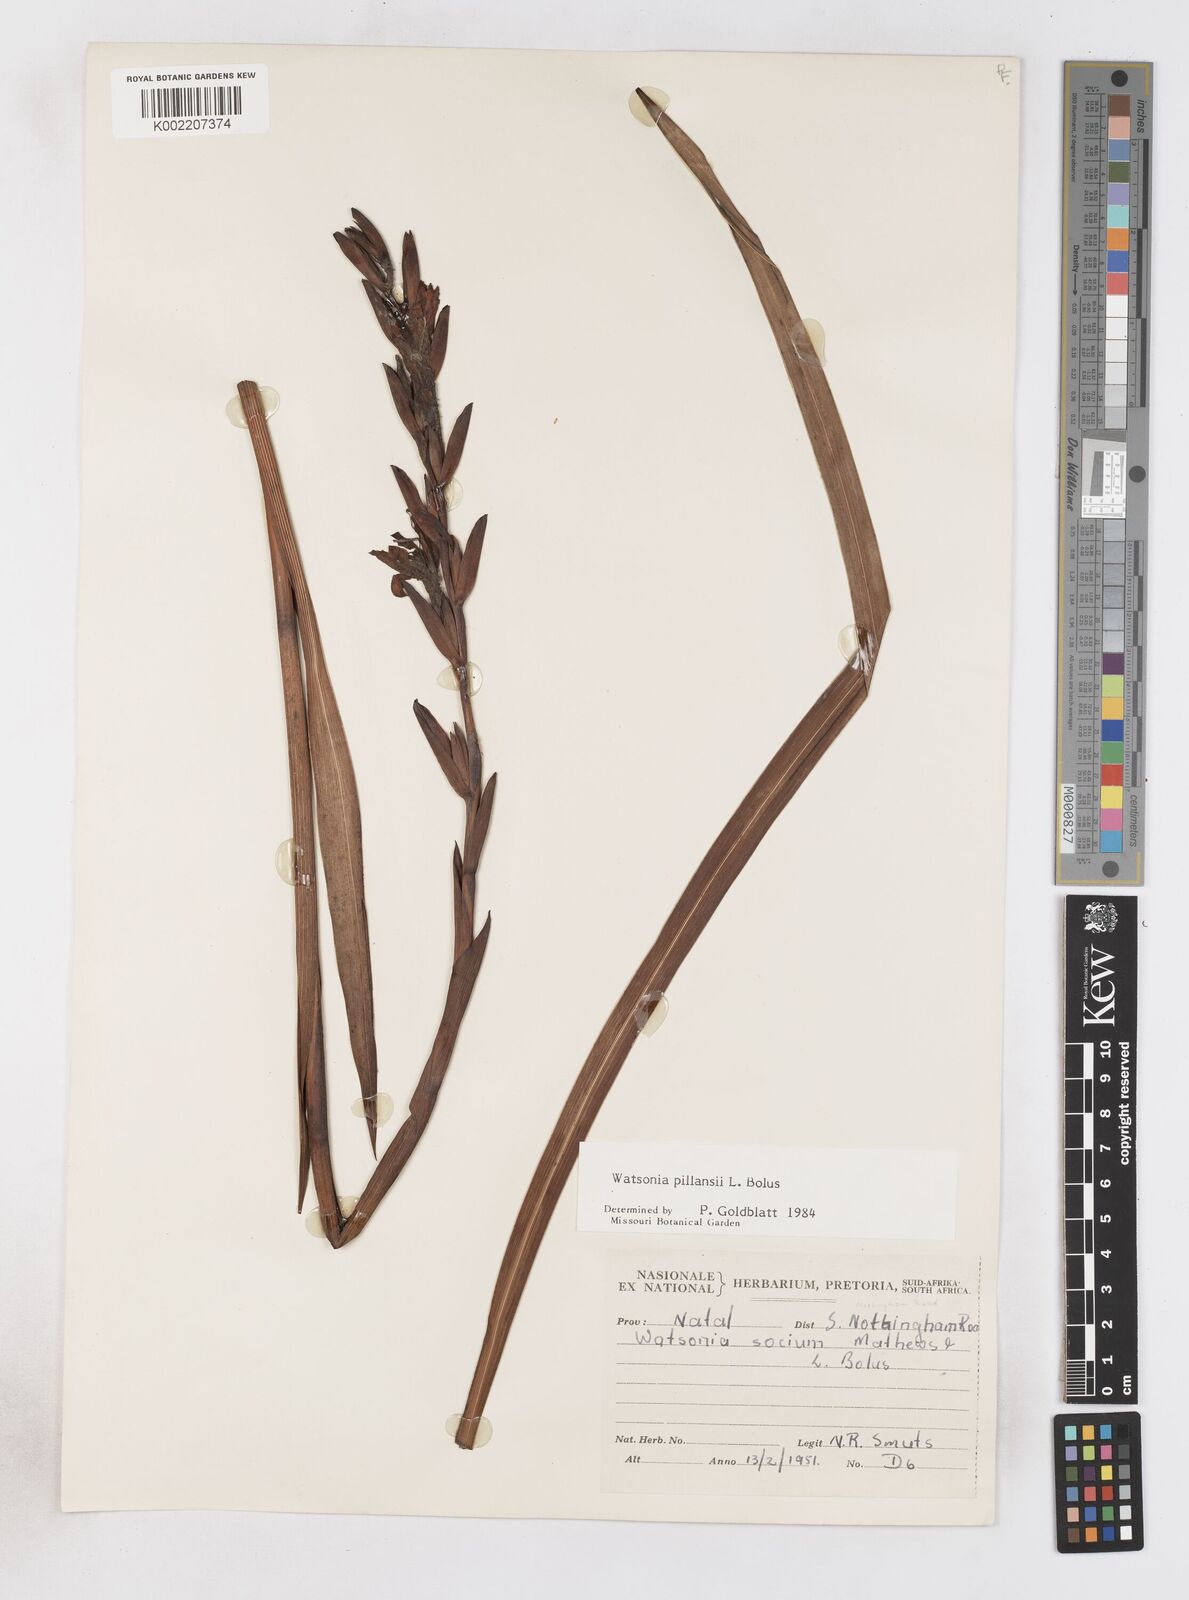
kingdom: Plantae
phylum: Tracheophyta
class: Liliopsida
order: Asparagales
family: Iridaceae
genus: Watsonia
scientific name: Watsonia pillansii
